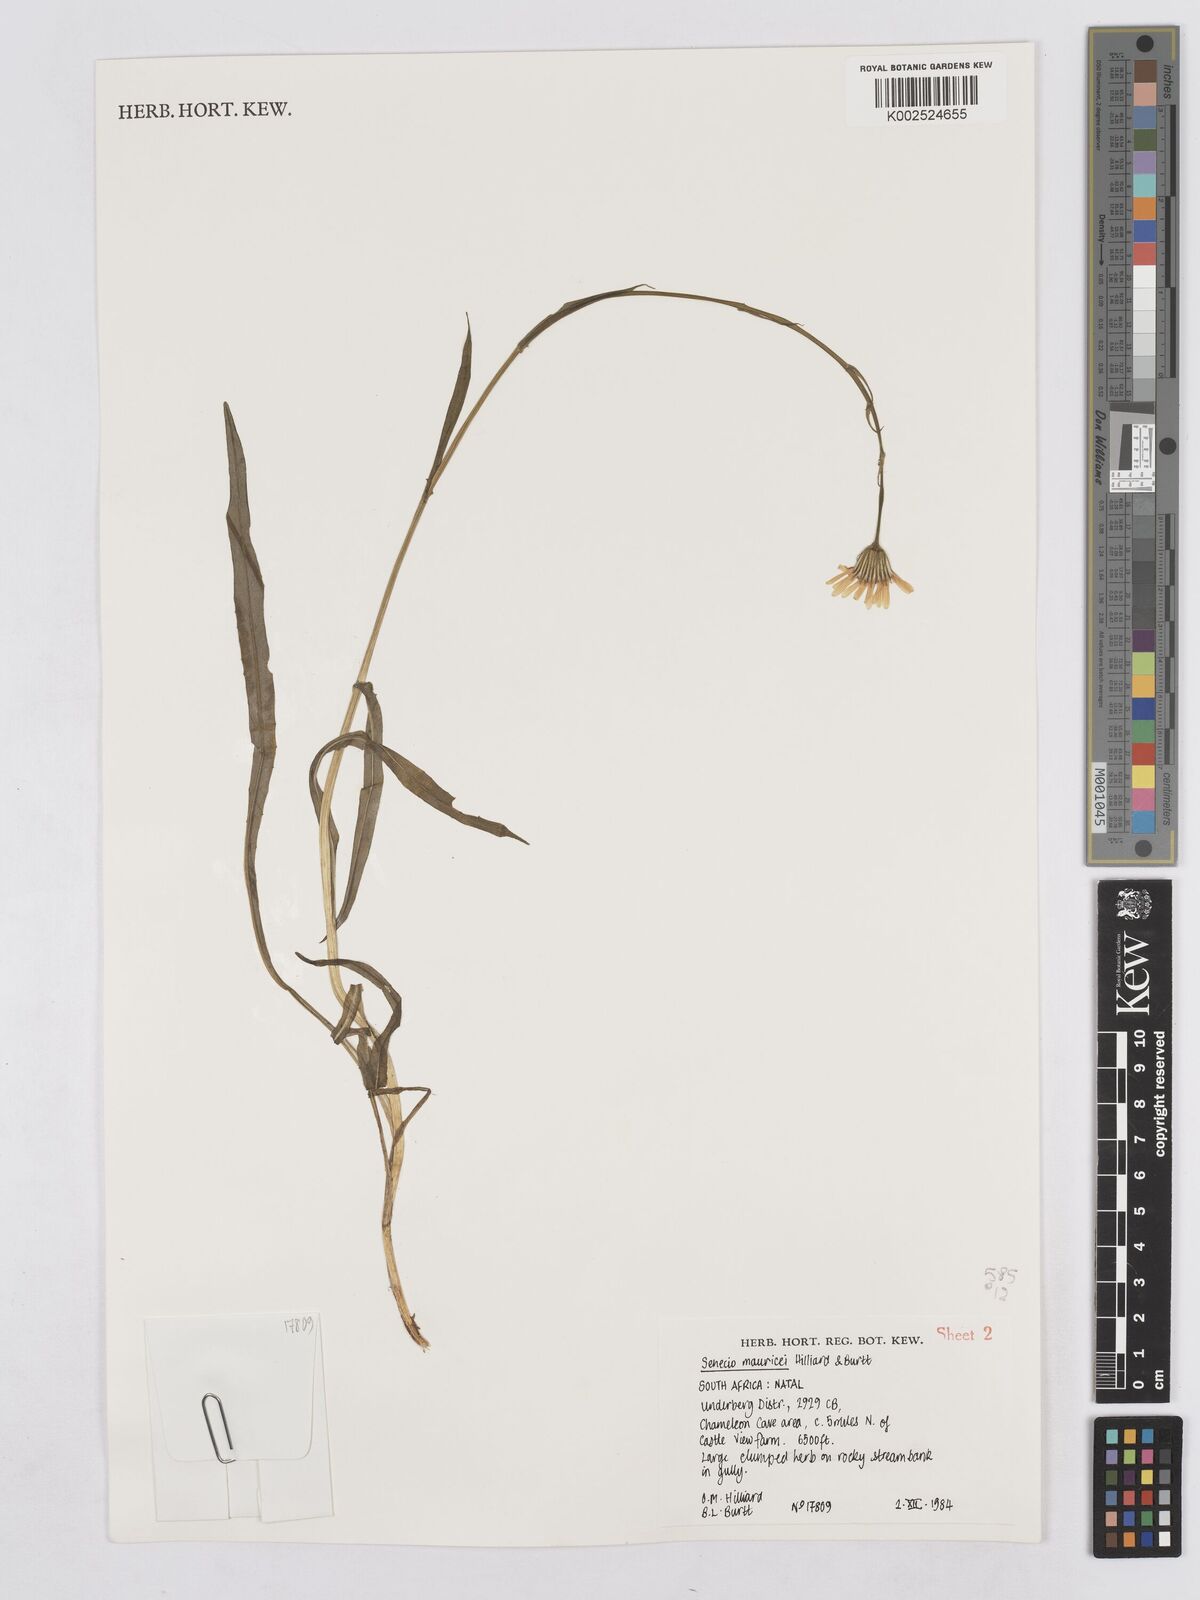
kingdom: Plantae
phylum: Tracheophyta
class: Magnoliopsida
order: Asterales
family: Asteraceae
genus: Senecio
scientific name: Senecio mauricei
